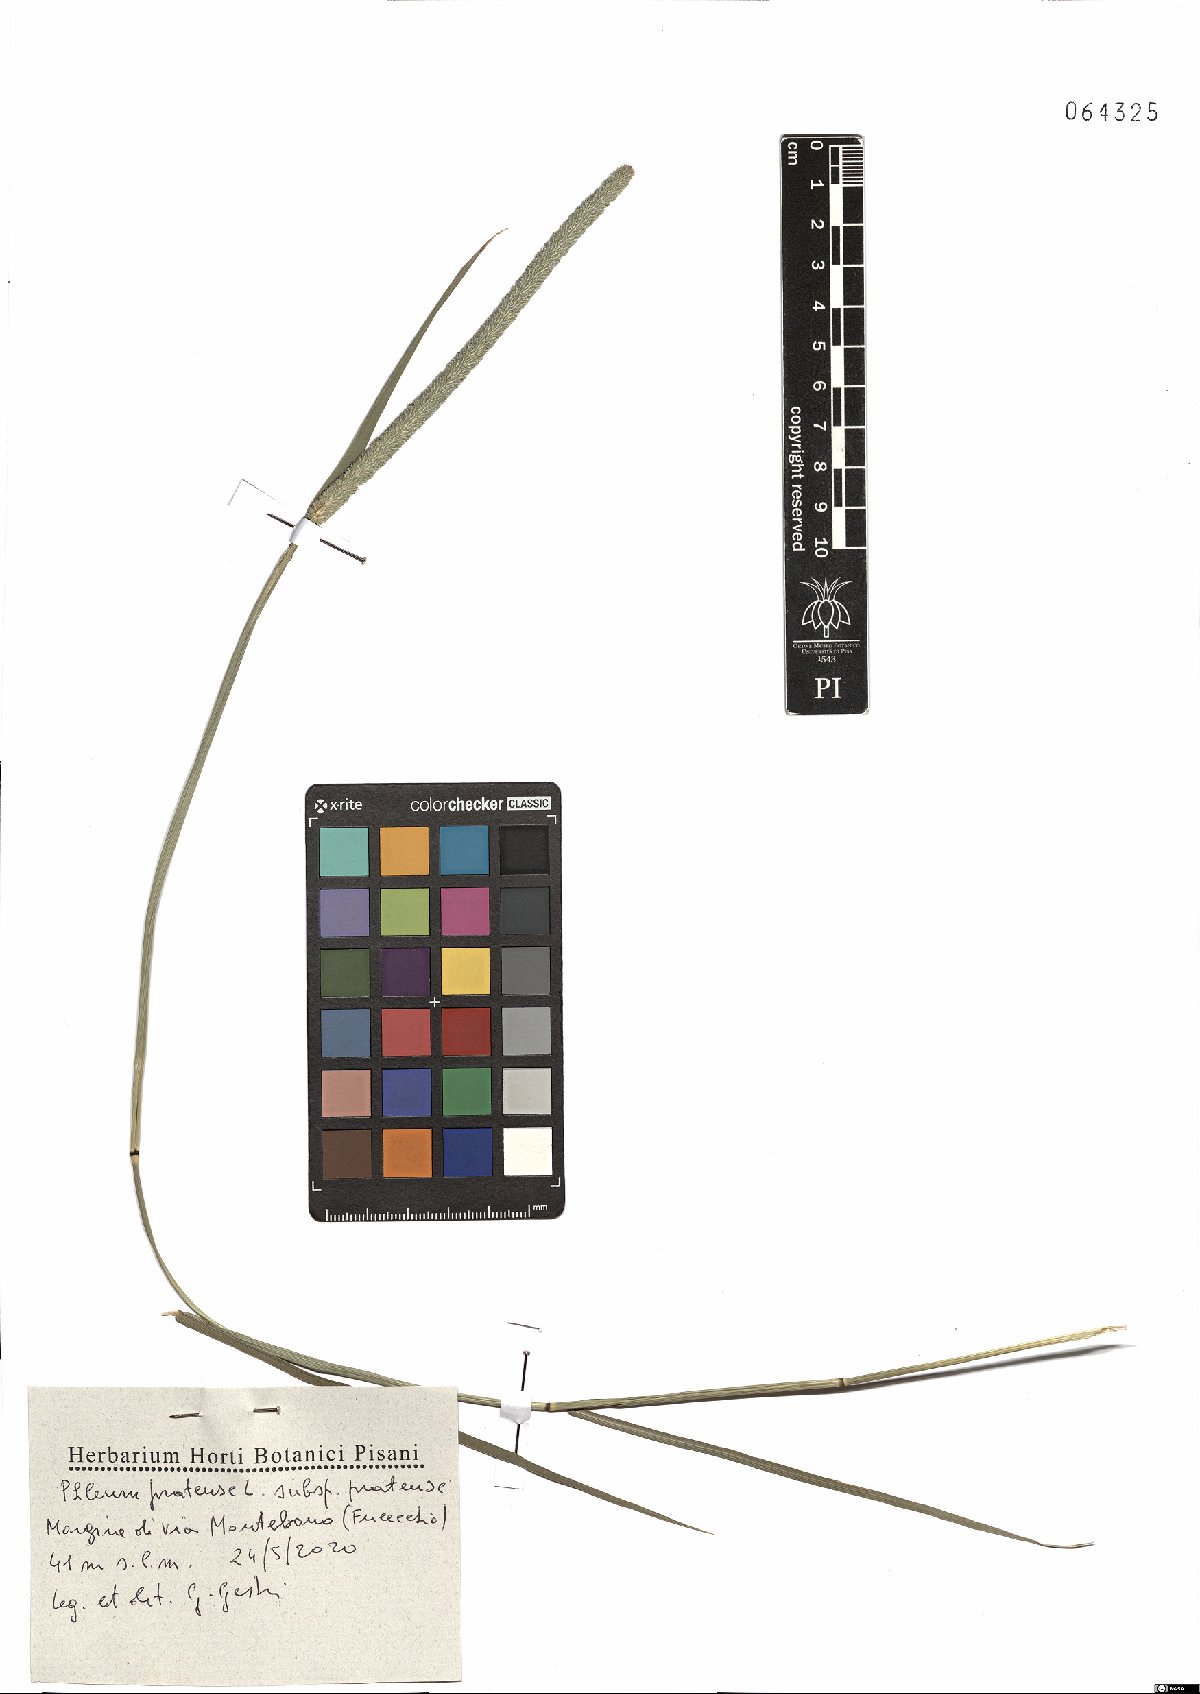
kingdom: Plantae
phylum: Tracheophyta
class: Liliopsida
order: Poales
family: Poaceae
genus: Phleum
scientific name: Phleum pratense
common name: Timothy grass
